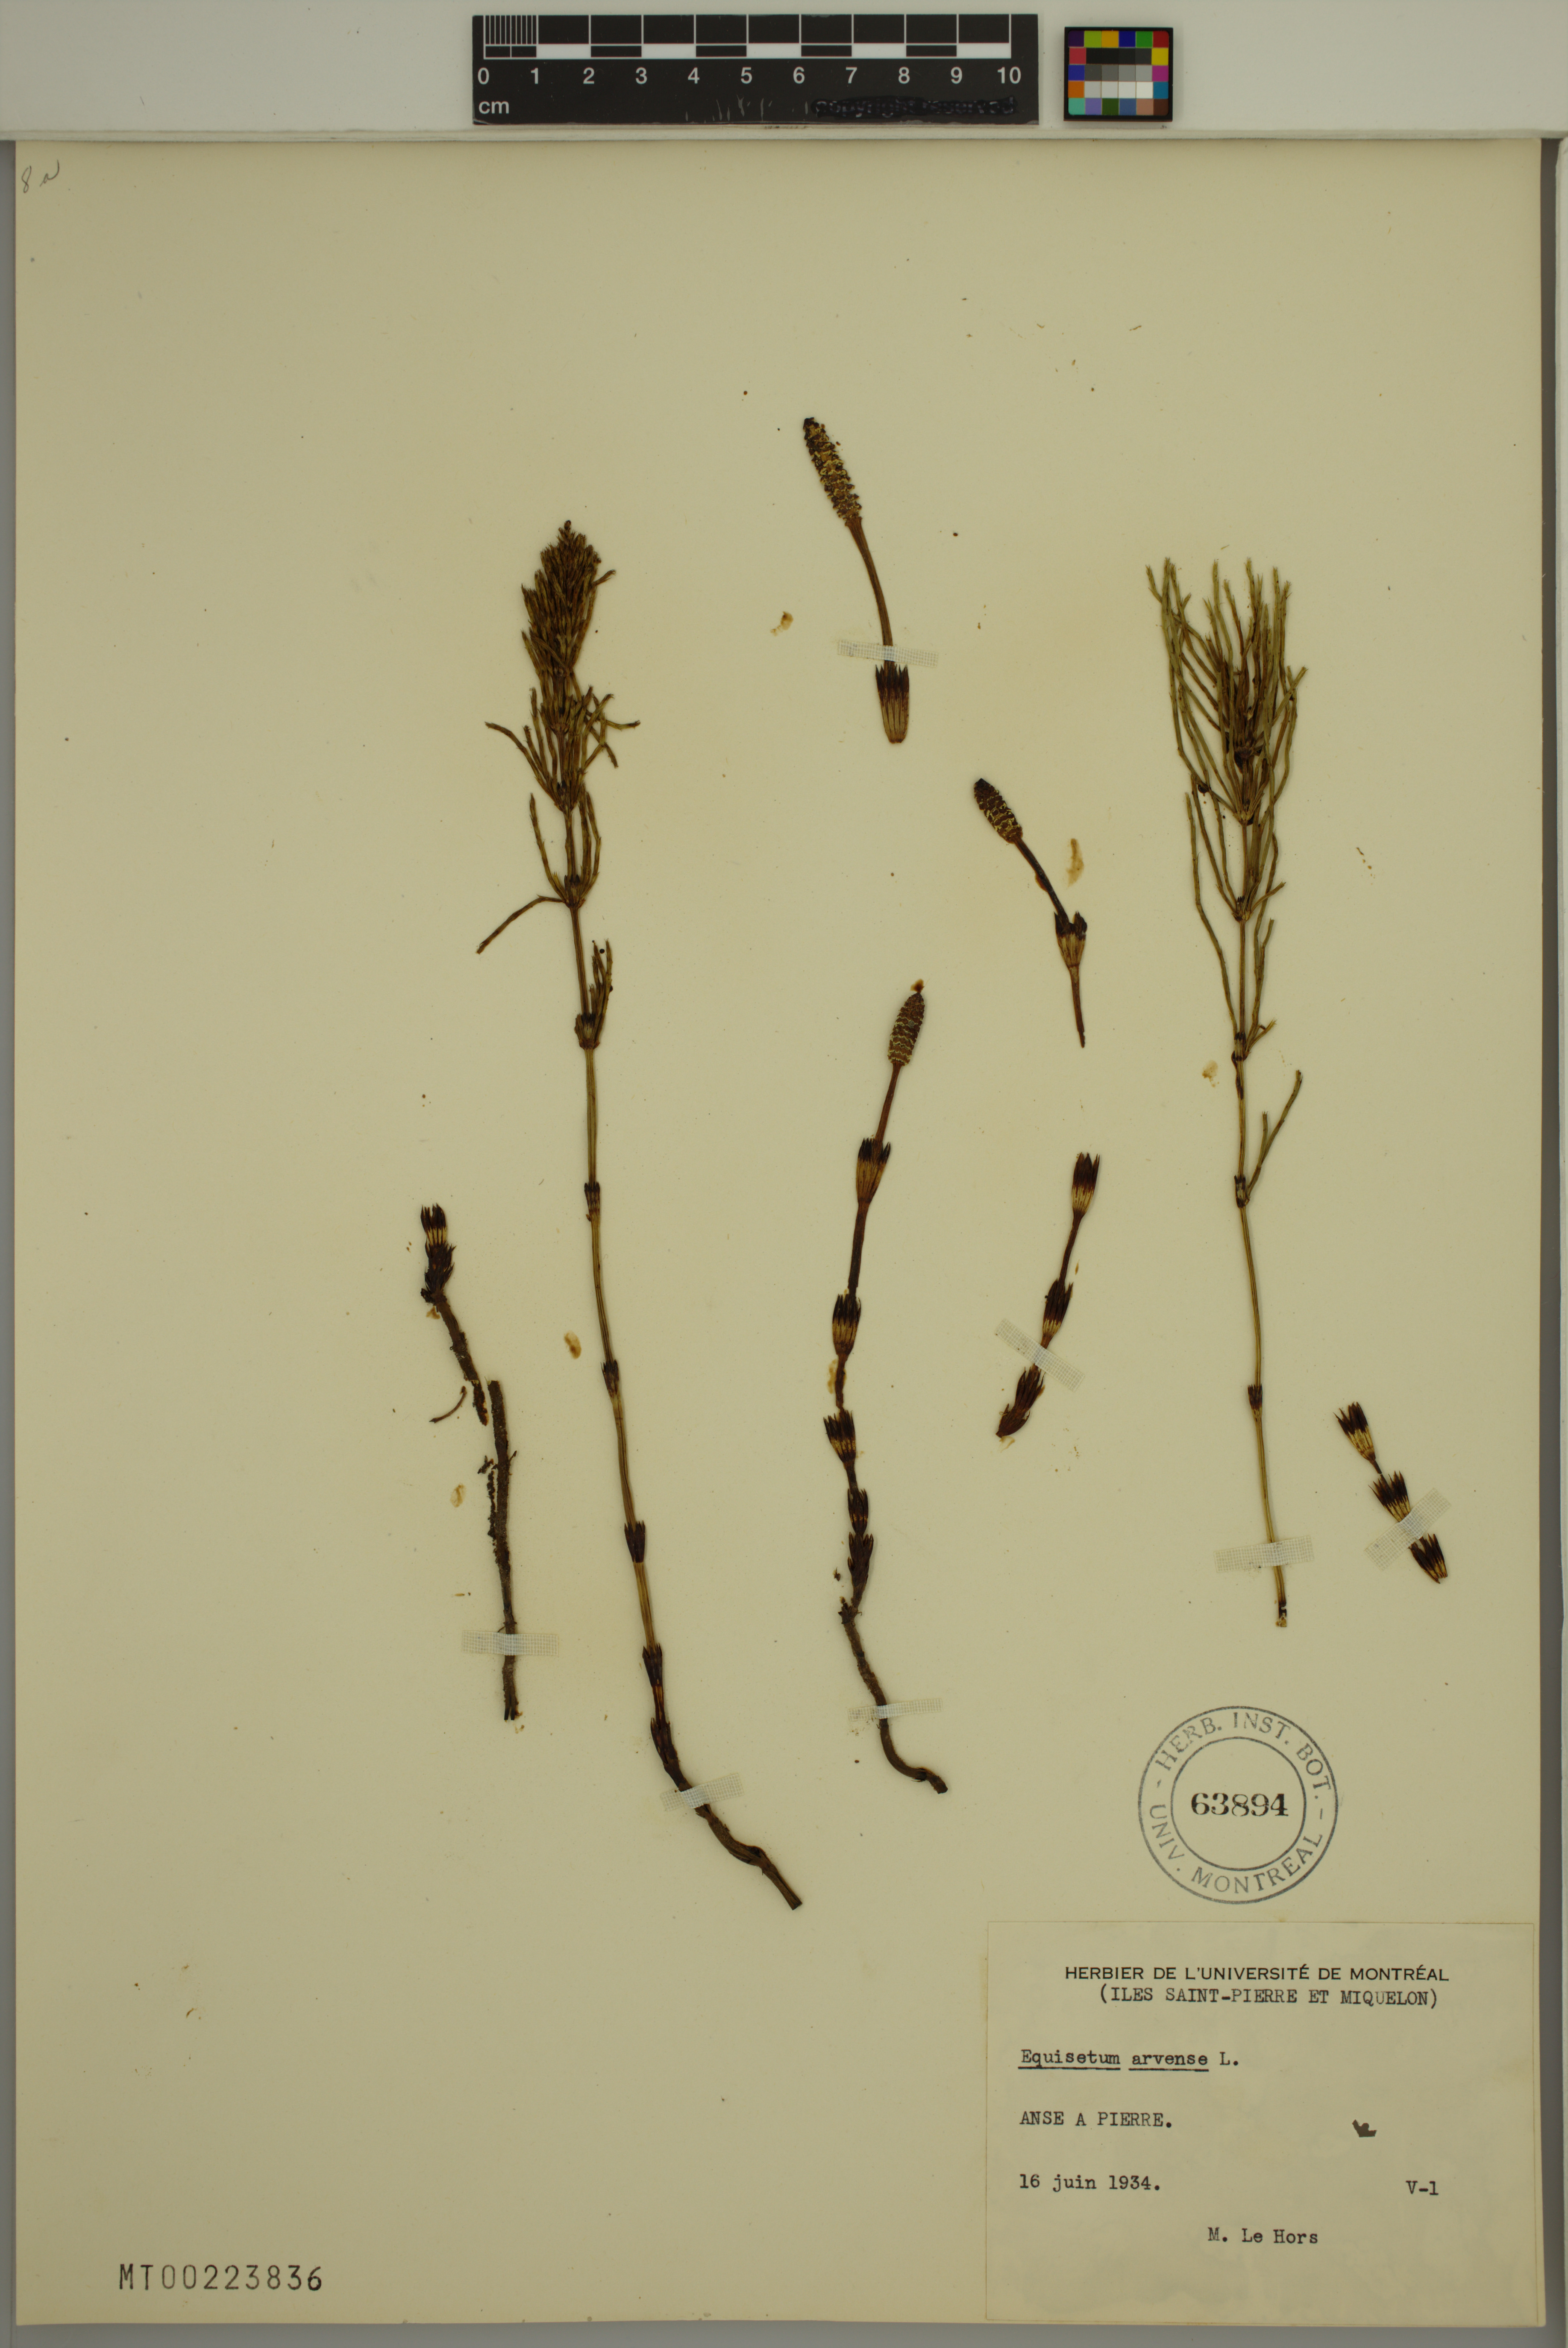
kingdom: Plantae
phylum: Tracheophyta
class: Polypodiopsida
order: Equisetales
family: Equisetaceae
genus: Equisetum
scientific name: Equisetum arvense
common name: Field horsetail
